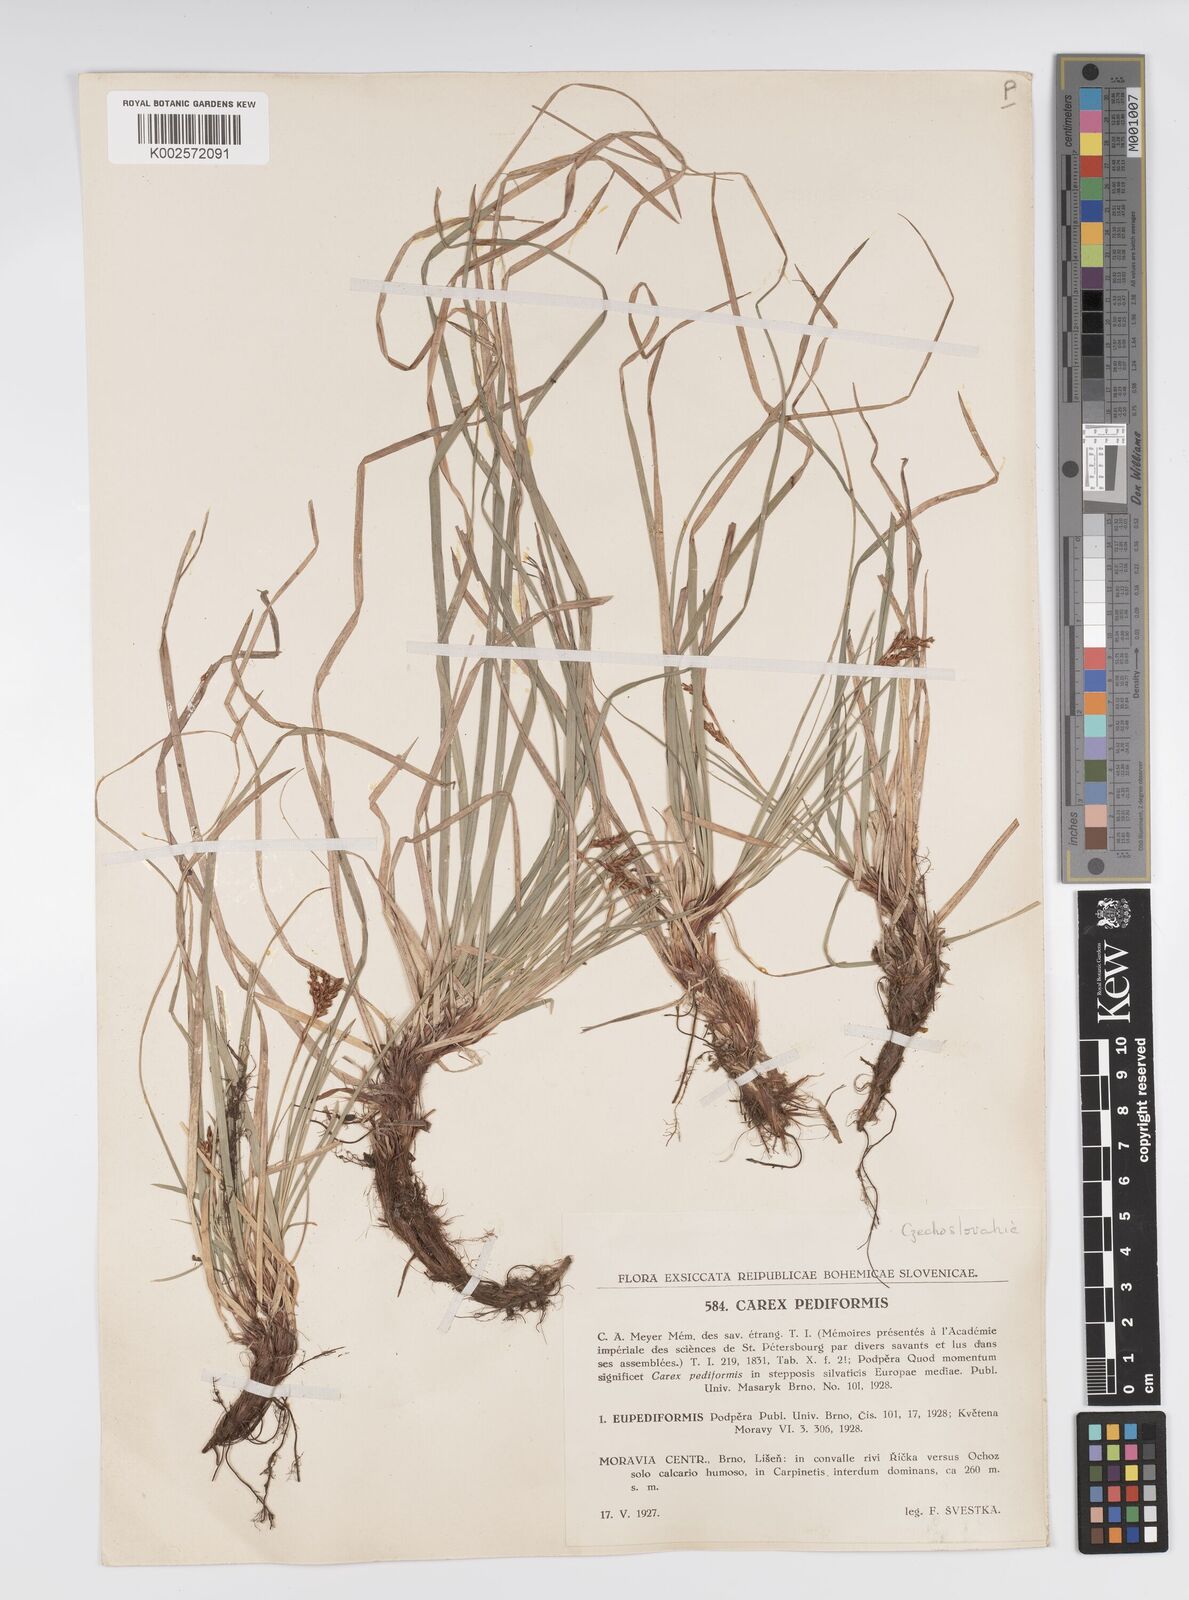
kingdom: Plantae
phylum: Tracheophyta
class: Liliopsida
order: Poales
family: Cyperaceae
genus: Carex
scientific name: Carex pediformis
